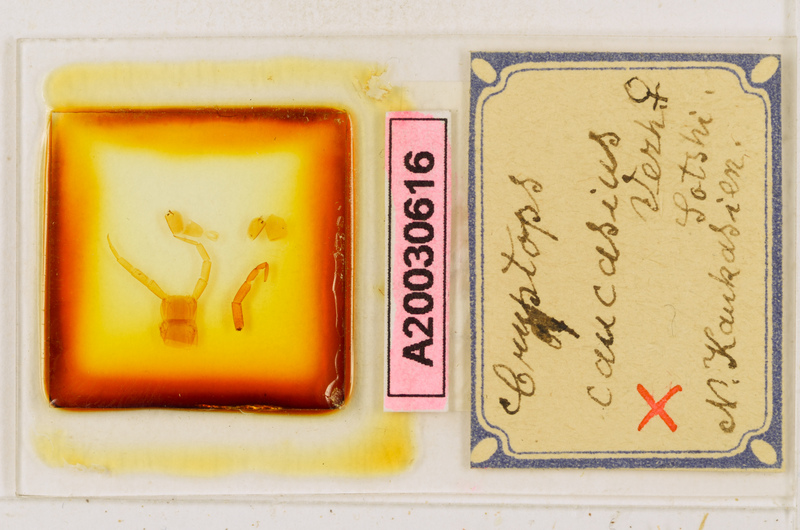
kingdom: Animalia
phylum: Arthropoda
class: Chilopoda
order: Scolopendromorpha
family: Cryptopidae
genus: Cryptops
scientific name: Cryptops caucasius
